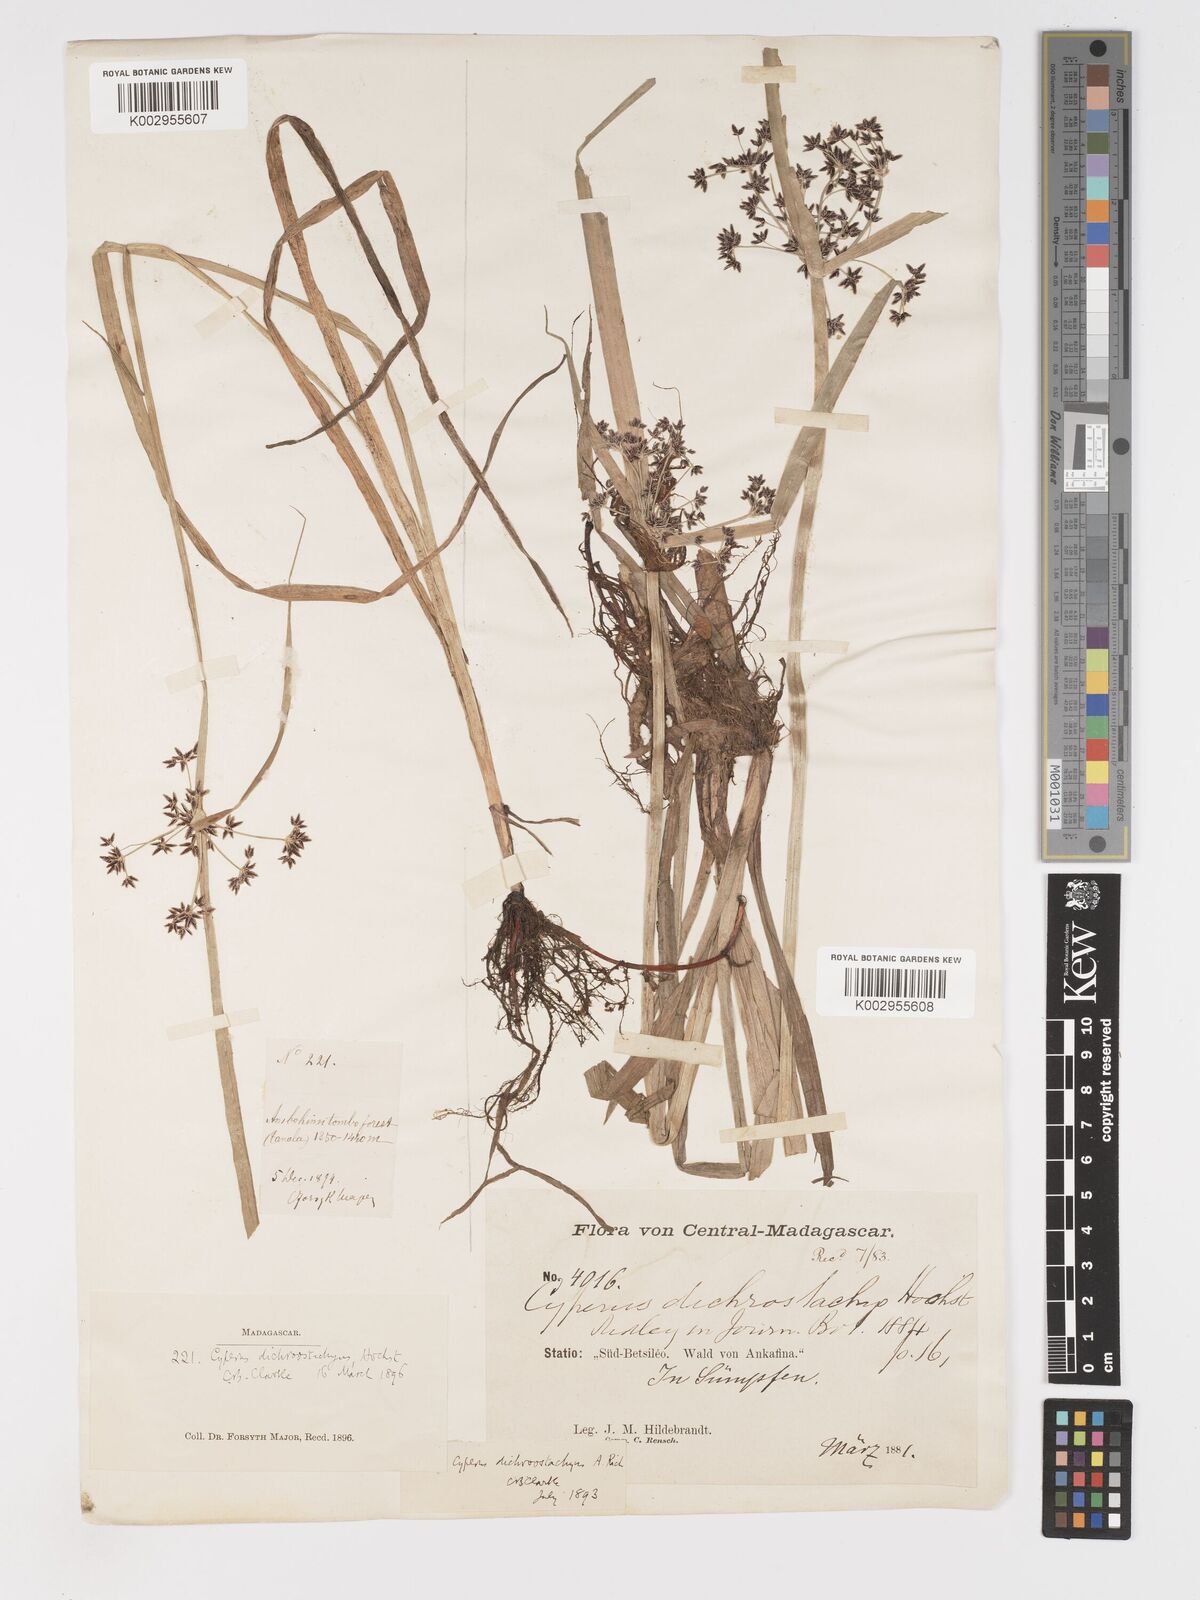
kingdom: Plantae
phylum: Tracheophyta
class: Liliopsida
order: Poales
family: Cyperaceae
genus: Cyperus
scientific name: Cyperus dichrostachyus
